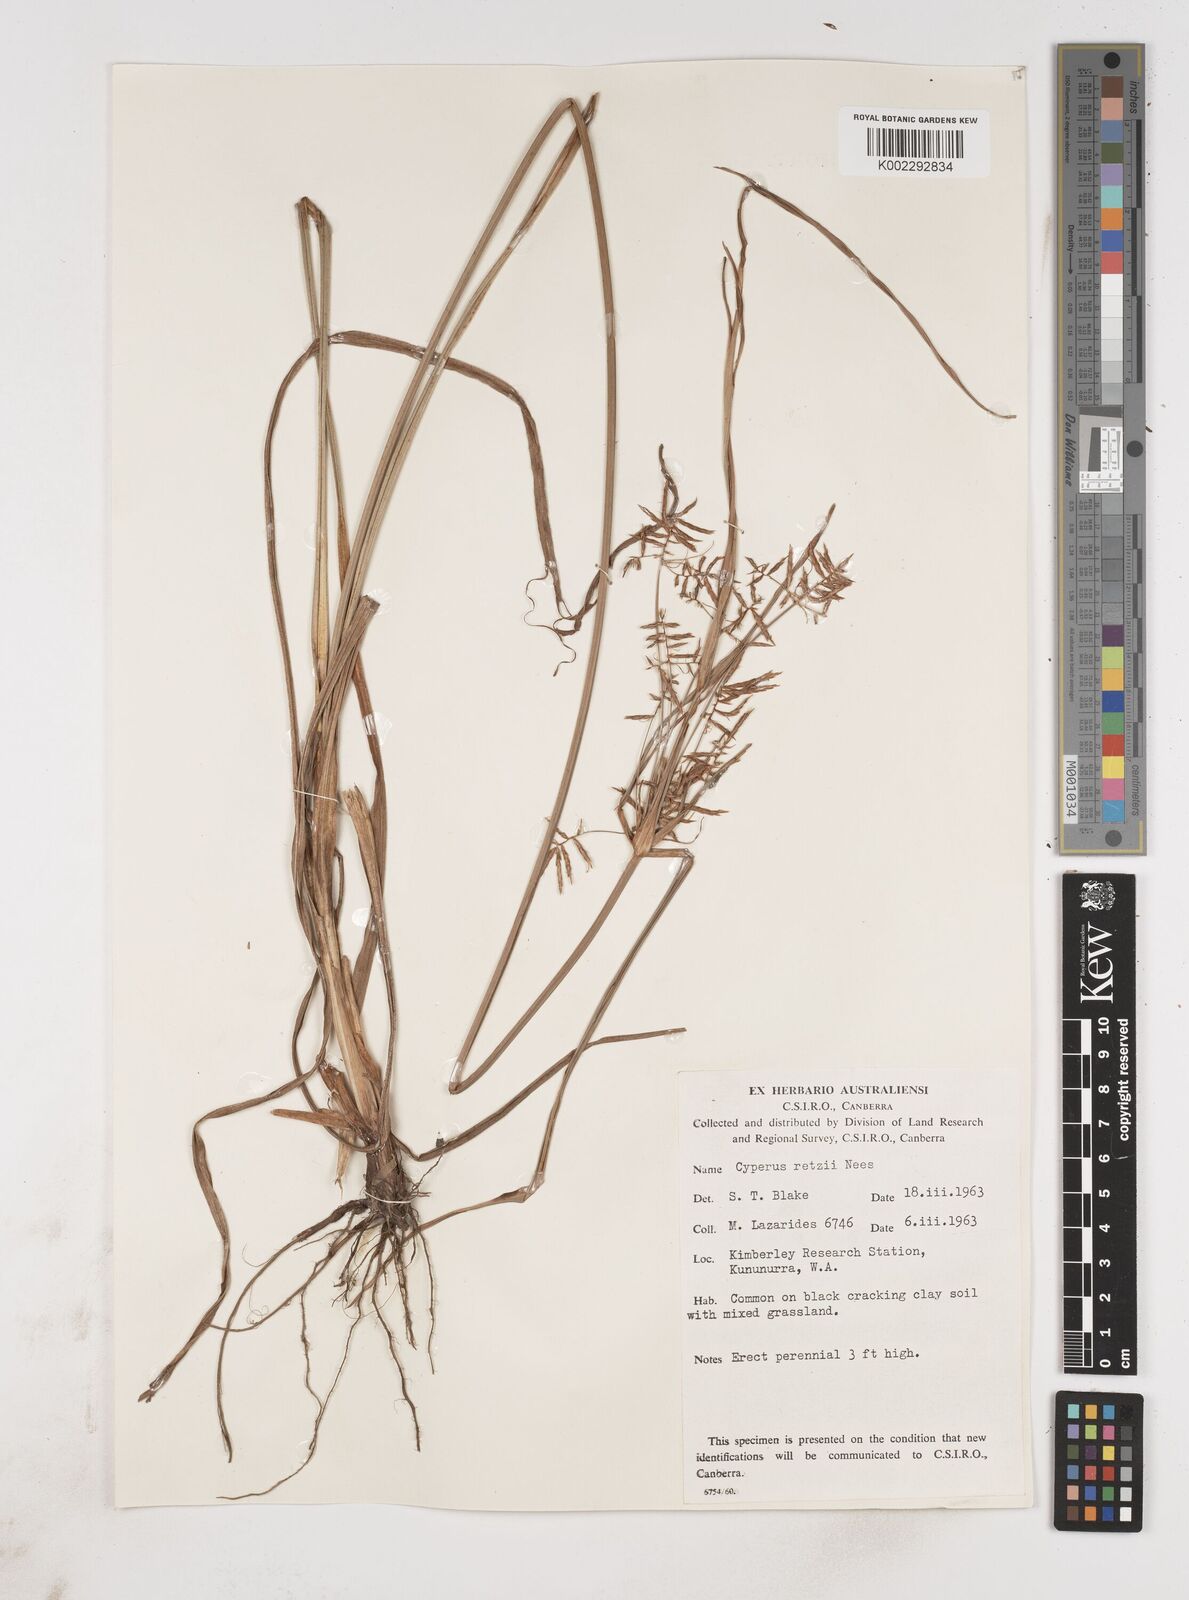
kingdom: Plantae
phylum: Tracheophyta
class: Liliopsida
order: Poales
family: Cyperaceae
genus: Cyperus
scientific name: Cyperus bifax
